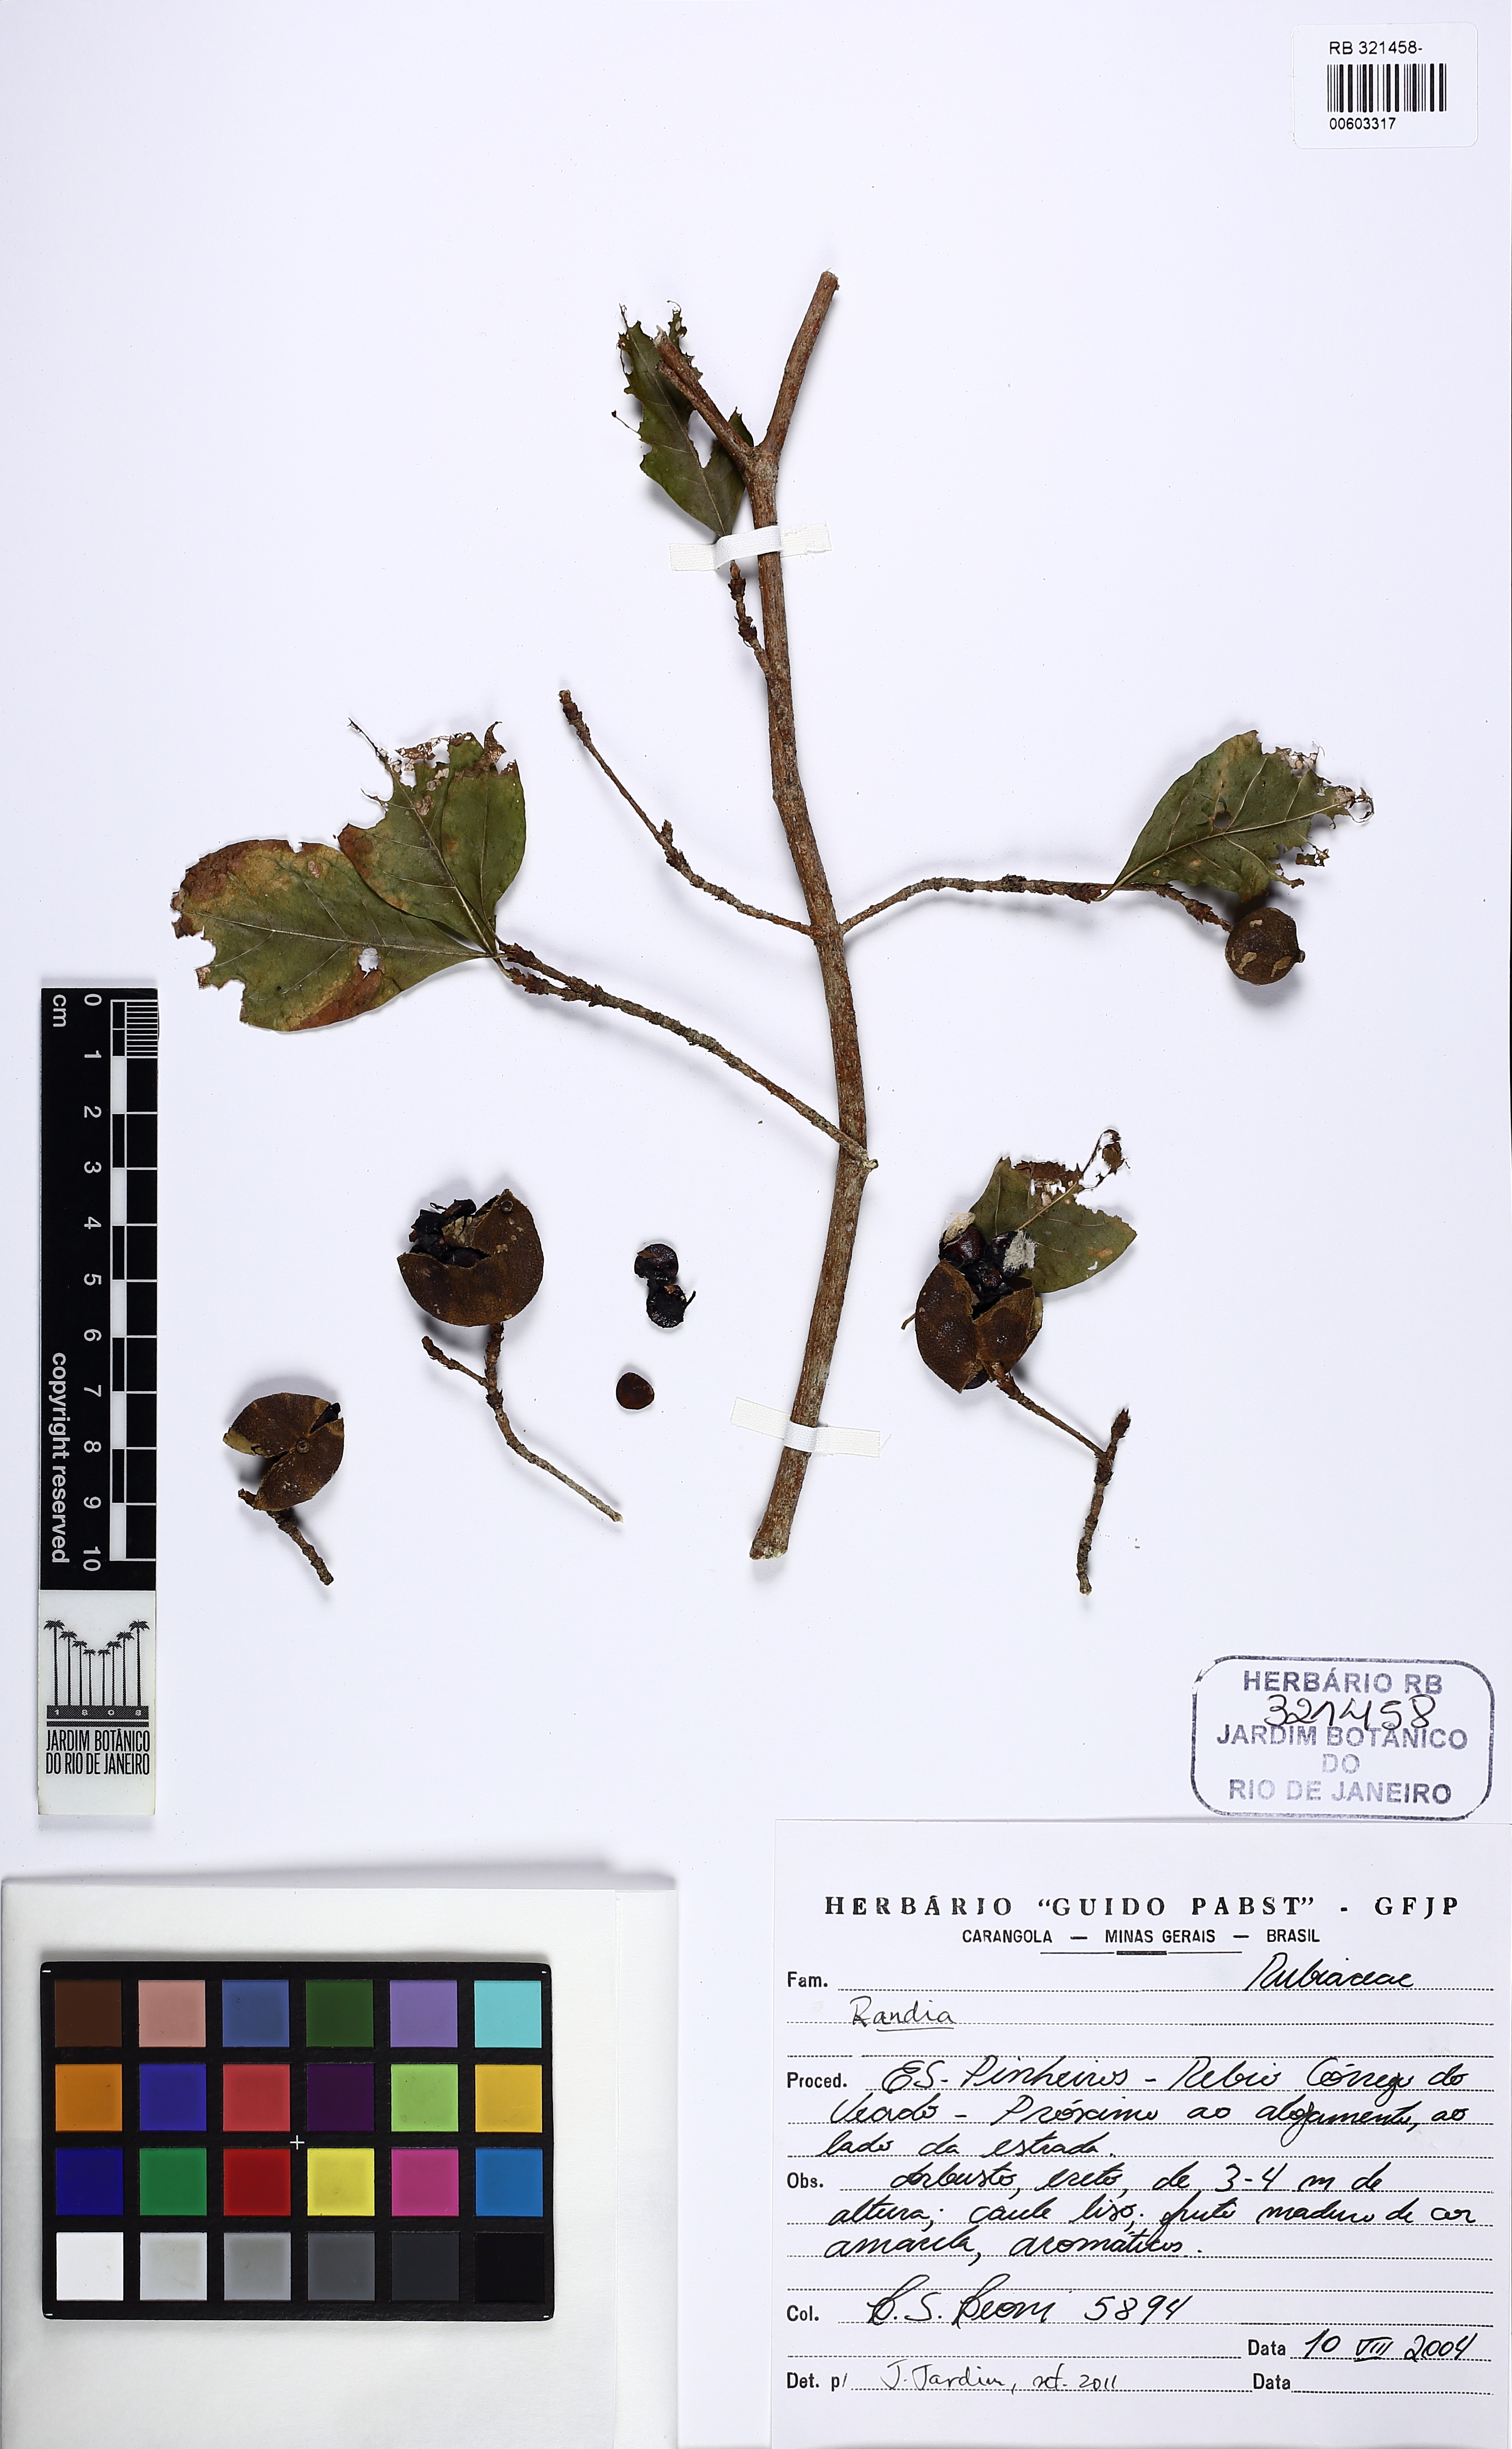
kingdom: Plantae
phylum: Tracheophyta
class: Magnoliopsida
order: Gentianales
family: Rubiaceae
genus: Randia
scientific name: Randia
